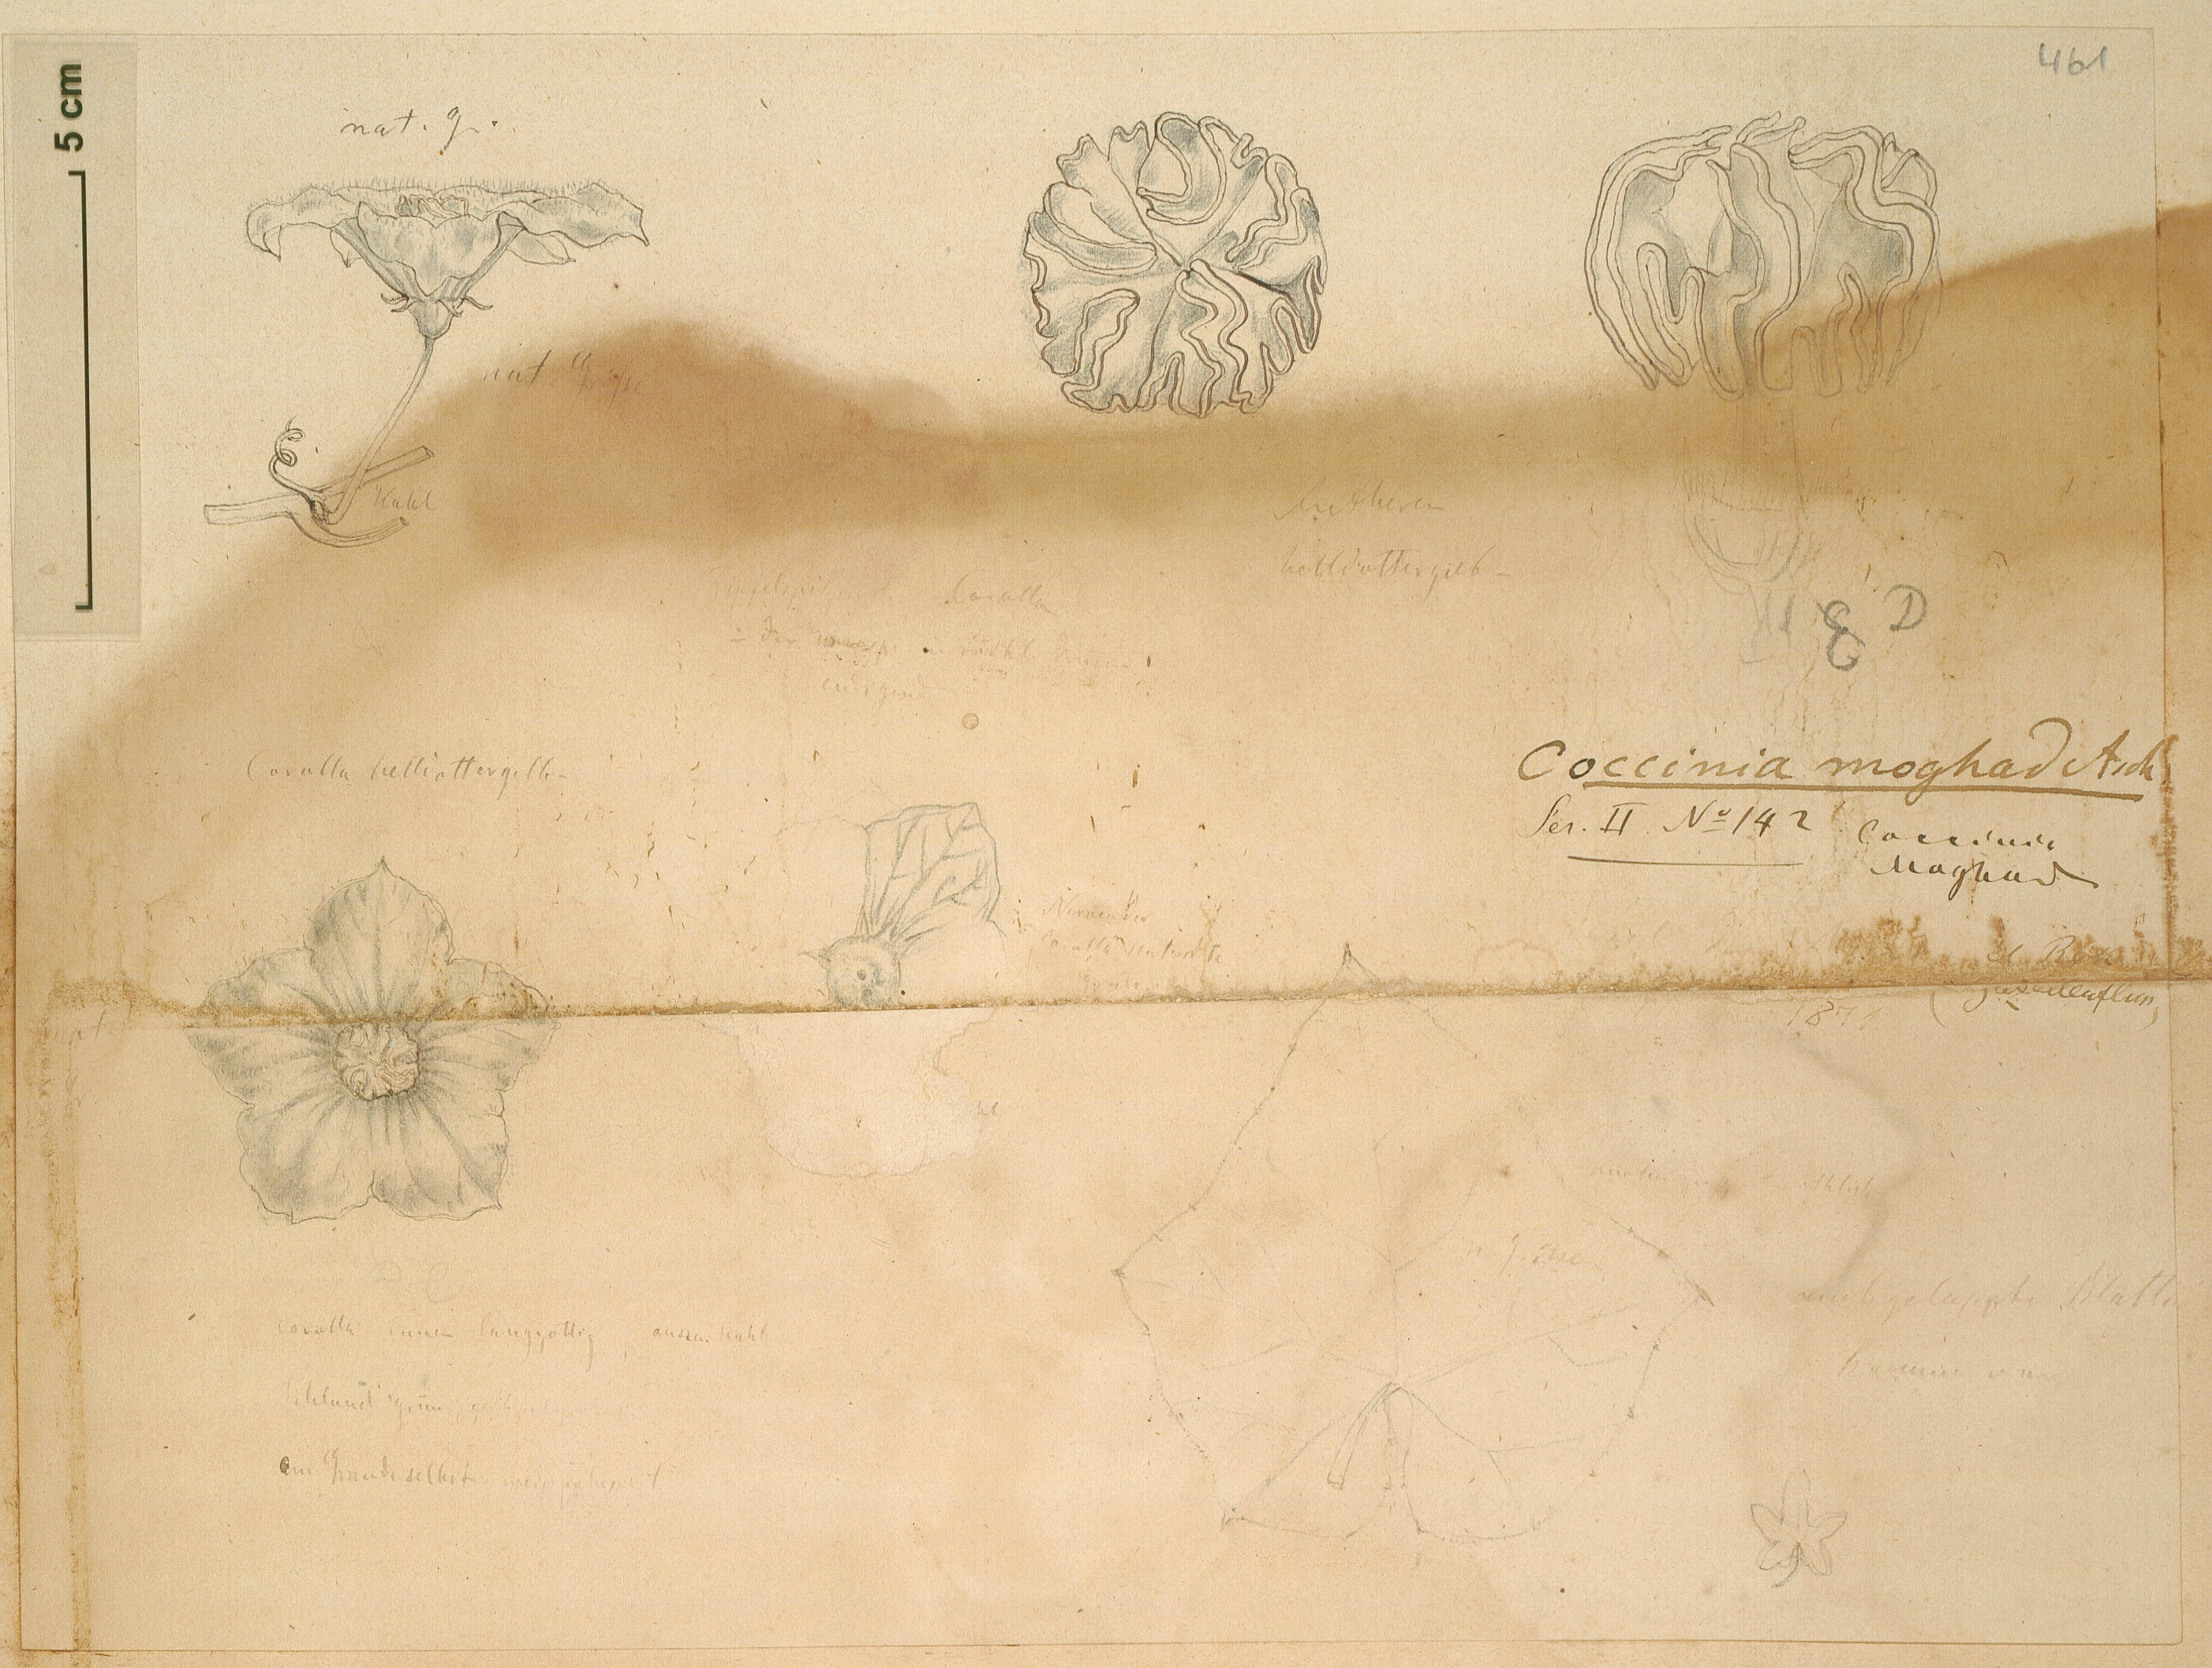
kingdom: Plantae
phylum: Tracheophyta
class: Magnoliopsida
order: Cucurbitales
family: Cucurbitaceae
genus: Coccinia
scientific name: Coccinia grandis
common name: Ivy gourd
